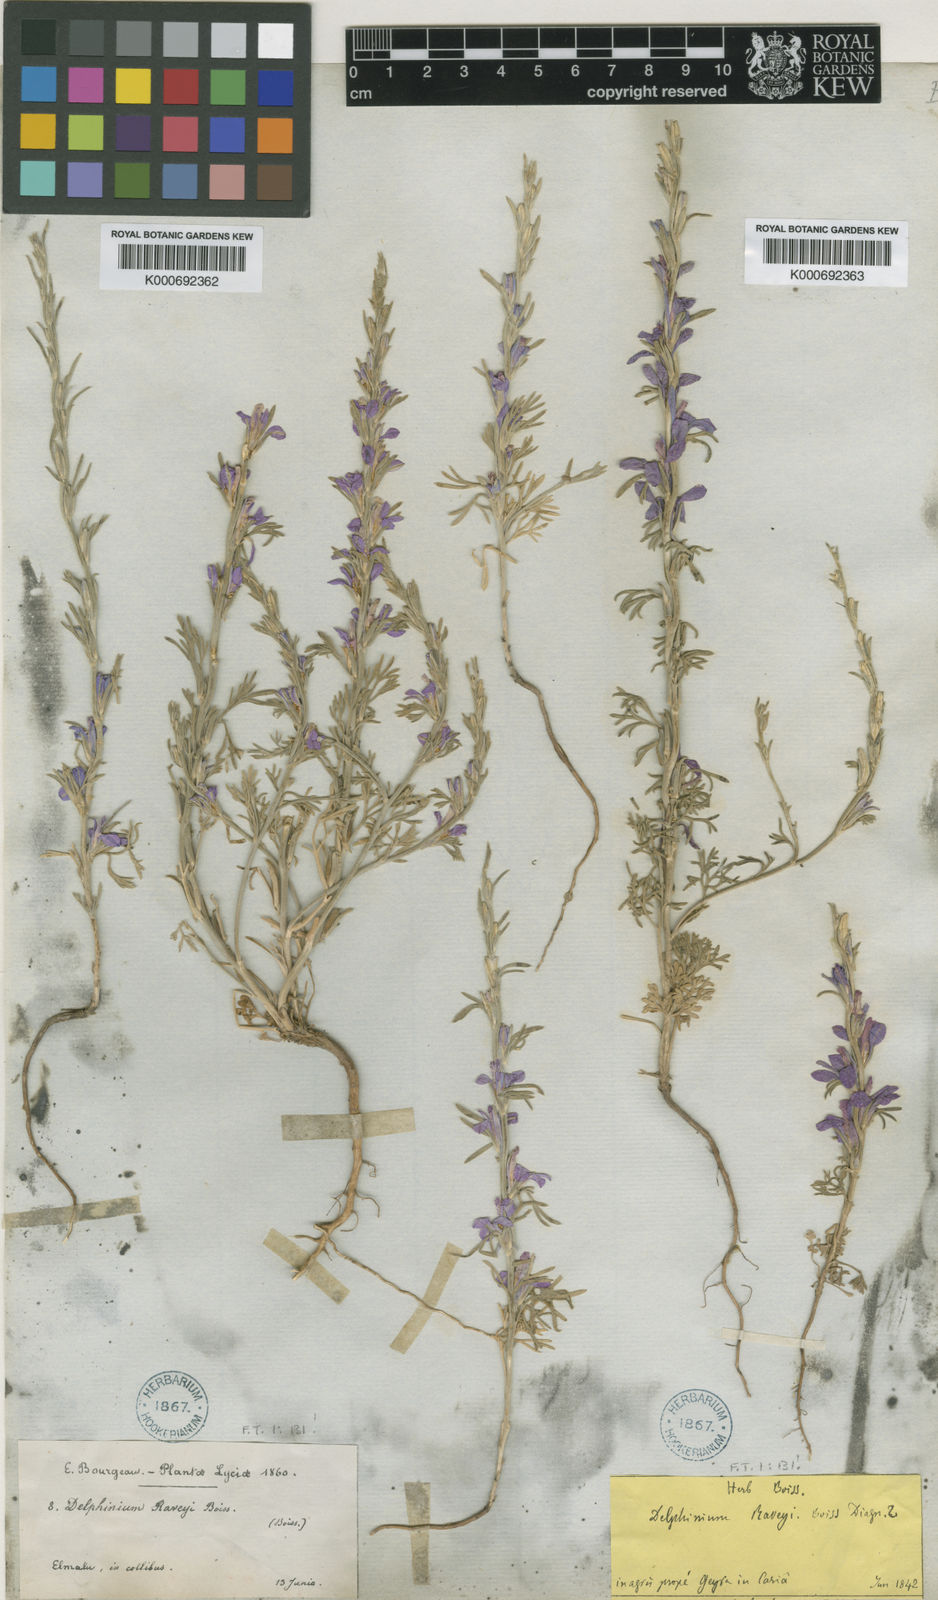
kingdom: Plantae
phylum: Tracheophyta
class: Magnoliopsida
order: Ranunculales
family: Ranunculaceae
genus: Delphinium
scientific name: Delphinium
